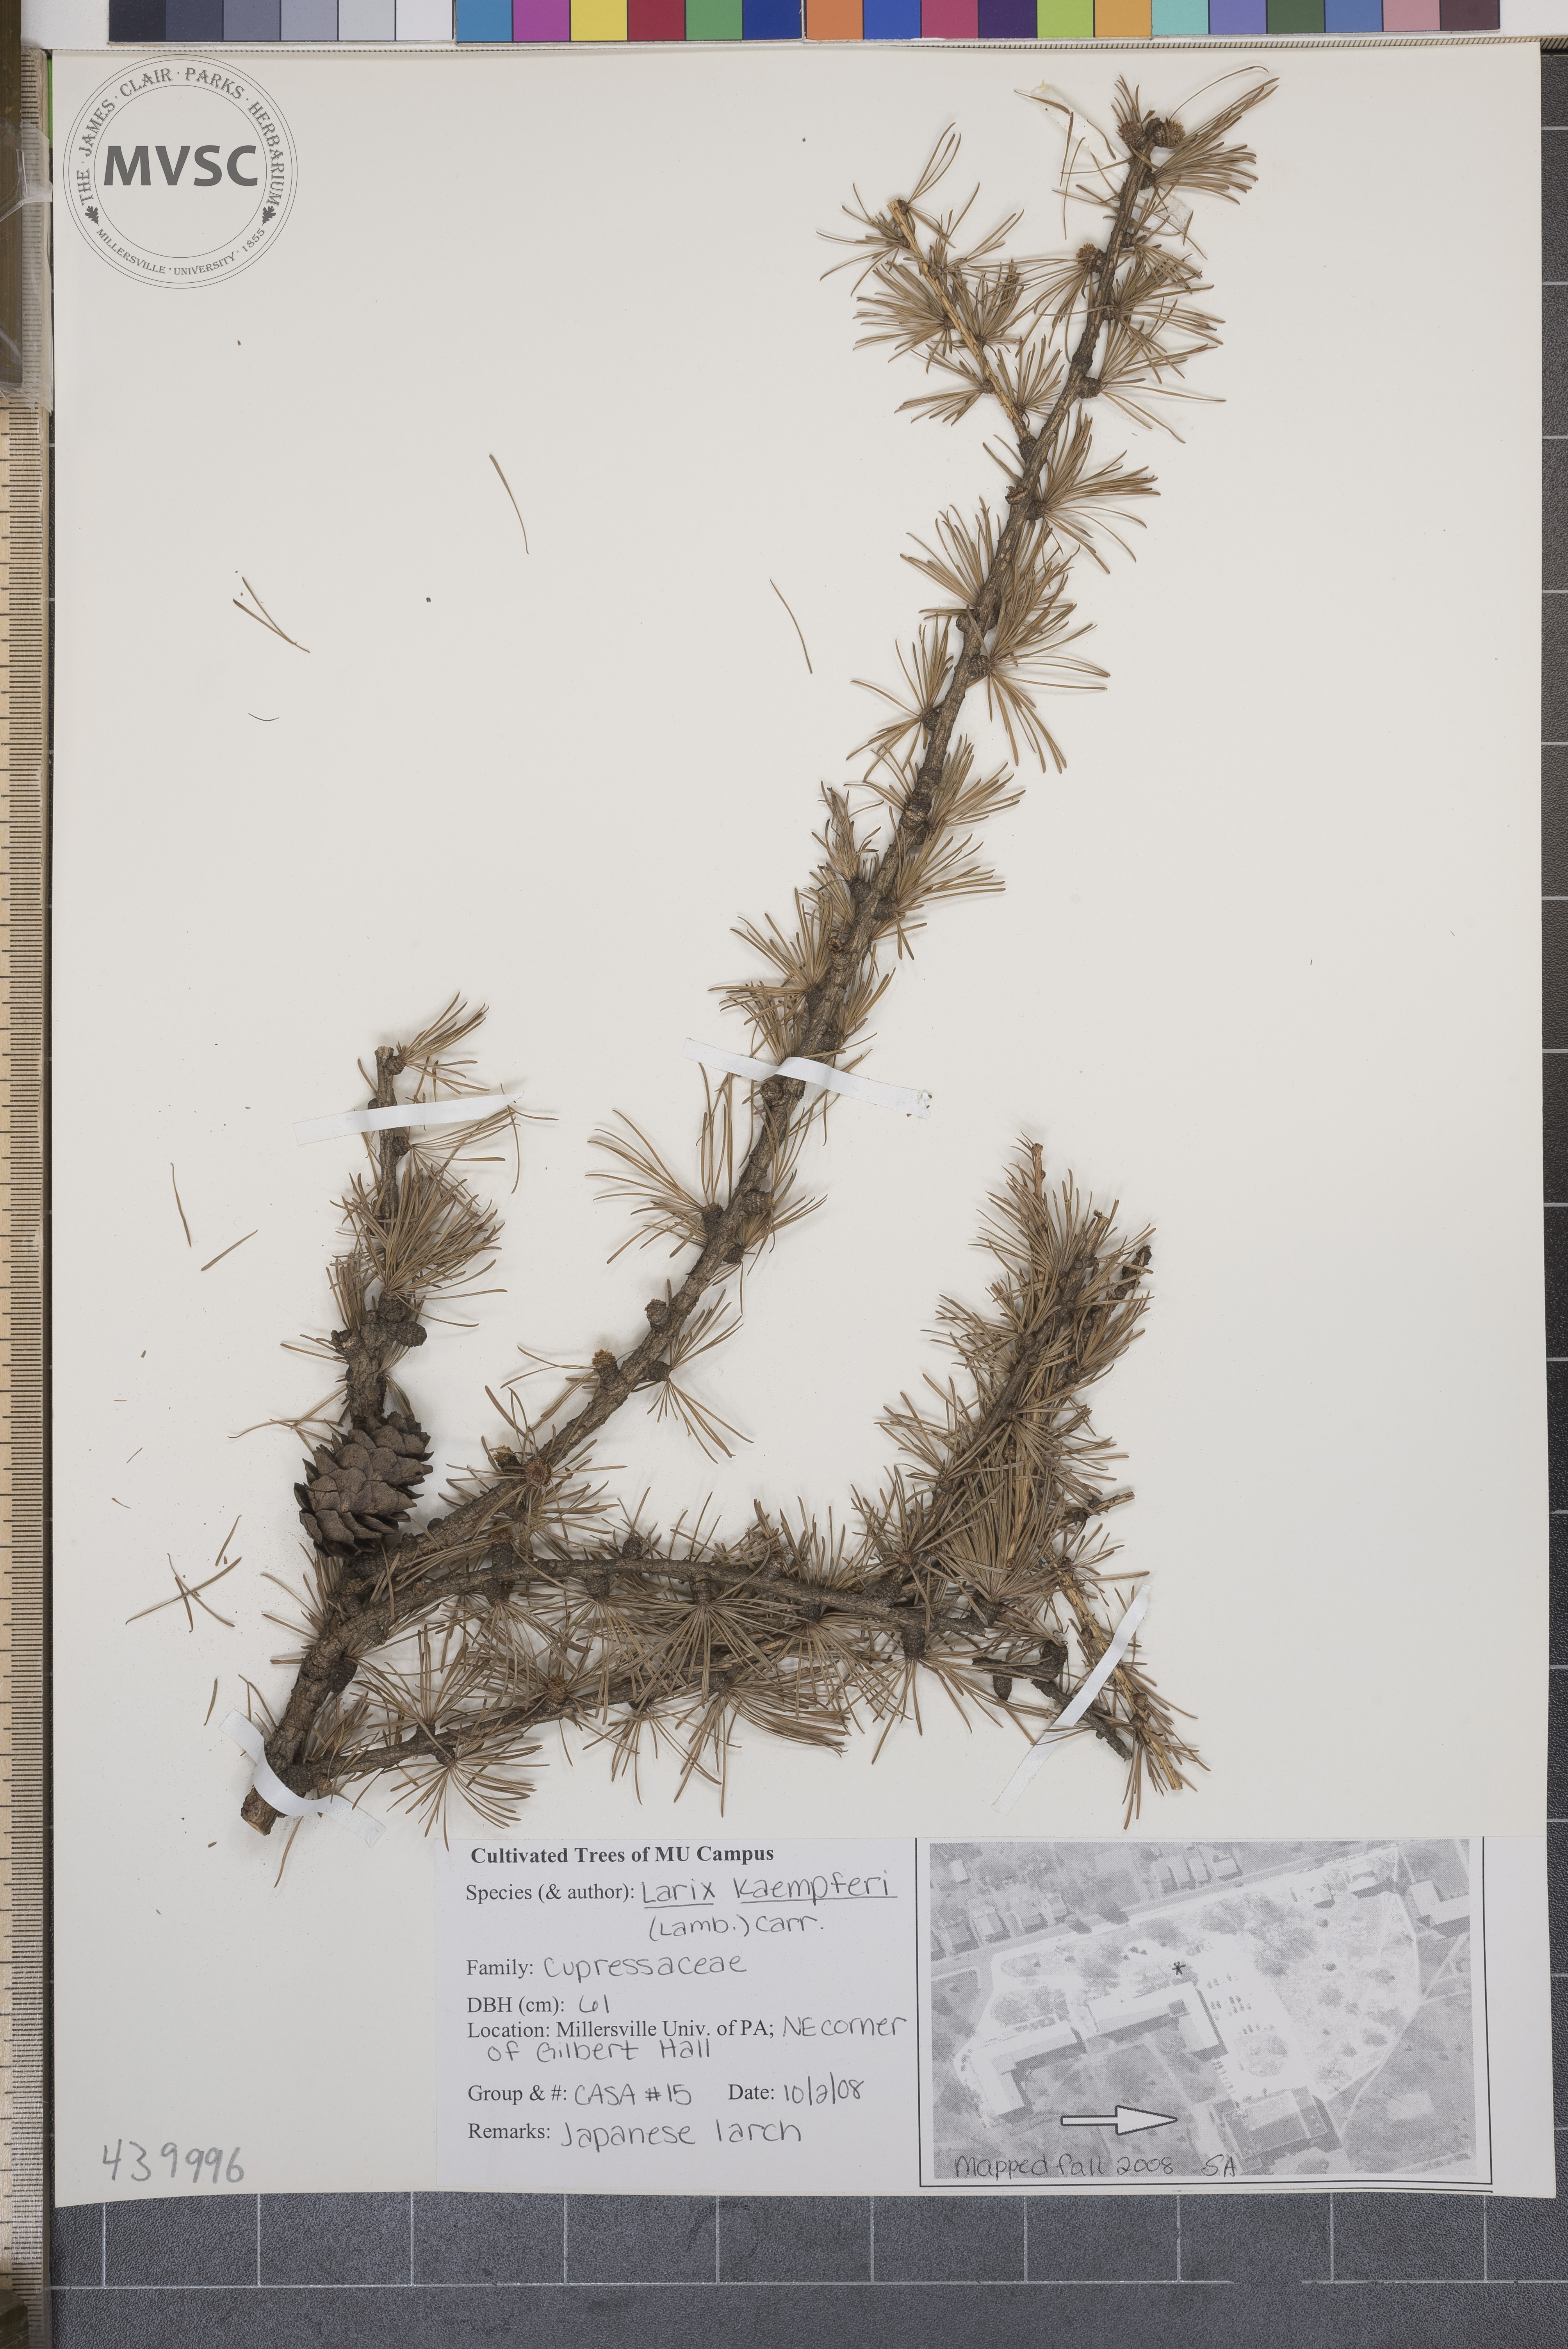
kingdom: Plantae
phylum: Tracheophyta
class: Pinopsida
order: Pinales
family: Pinaceae
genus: Larix
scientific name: Larix kaempferi
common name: Japanese larch
